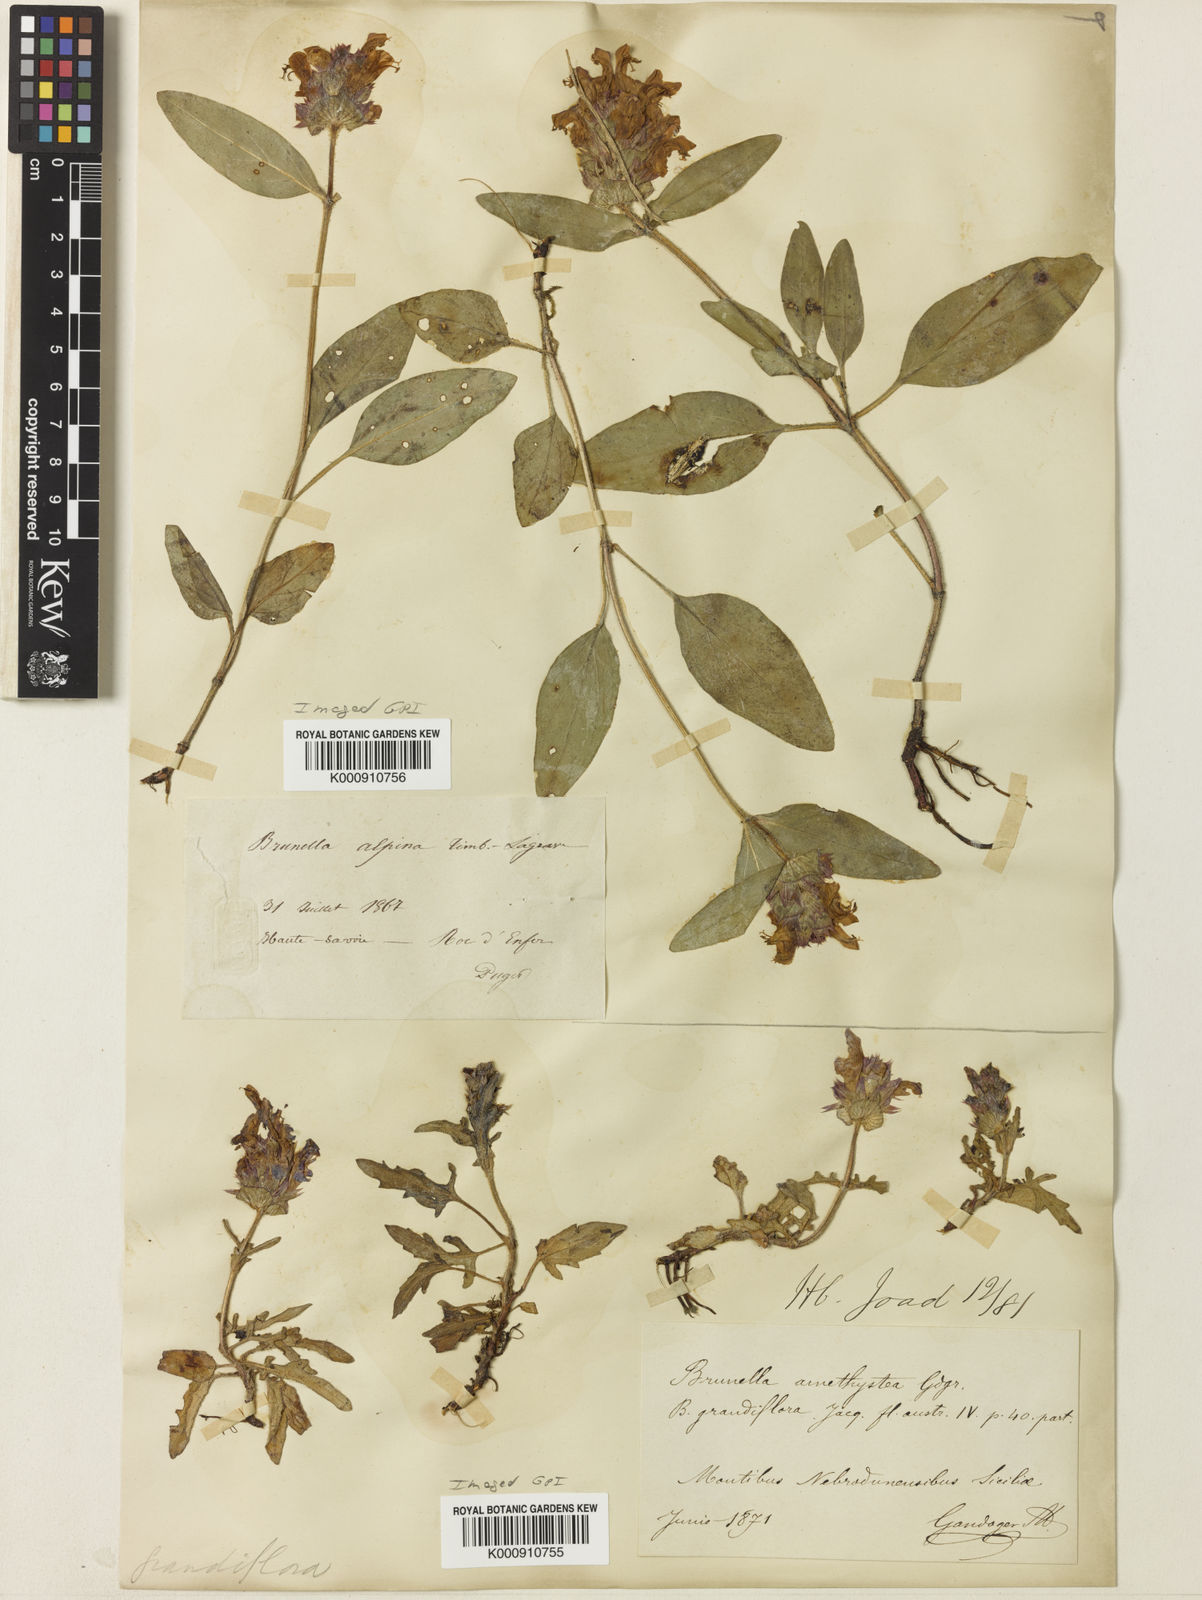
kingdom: Plantae
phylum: Tracheophyta
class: Magnoliopsida
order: Lamiales
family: Lamiaceae
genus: Prunella
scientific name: Prunella
